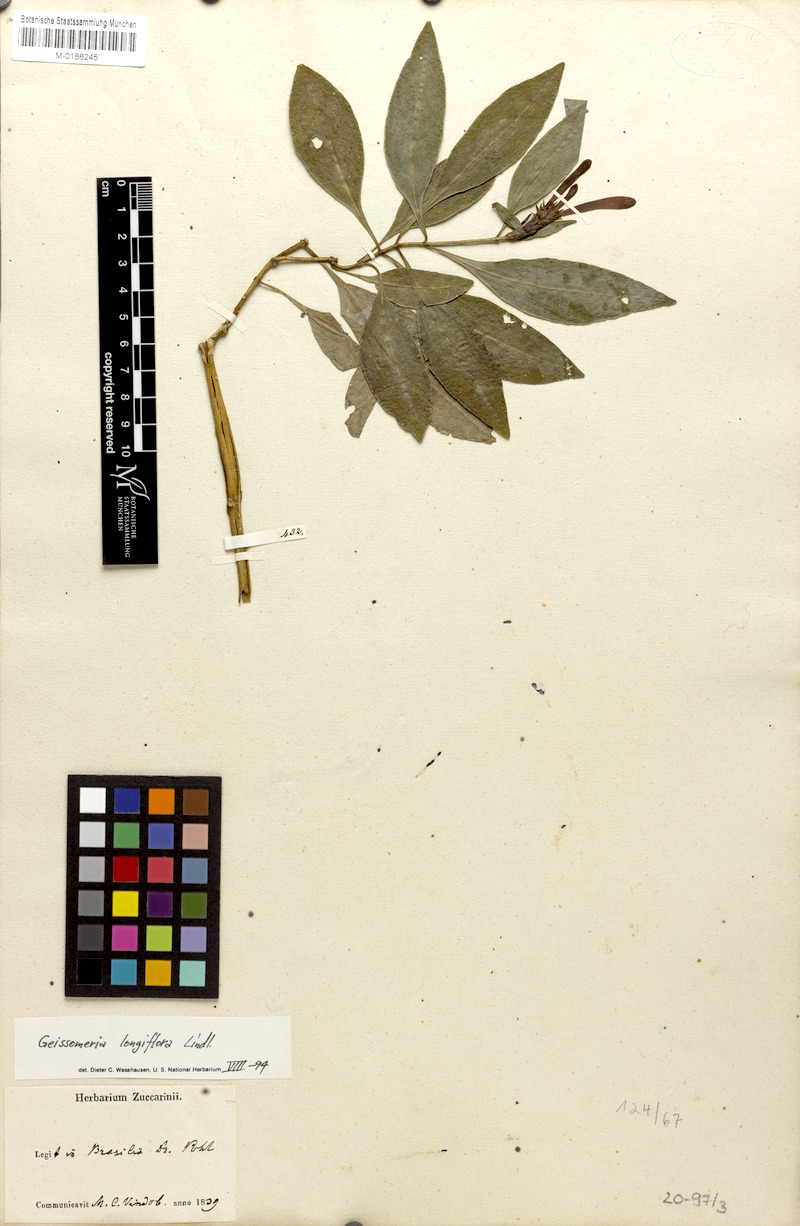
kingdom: Plantae
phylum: Tracheophyta
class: Magnoliopsida
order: Lamiales
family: Acanthaceae
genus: Aphelandra
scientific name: Aphelandra longiflora
